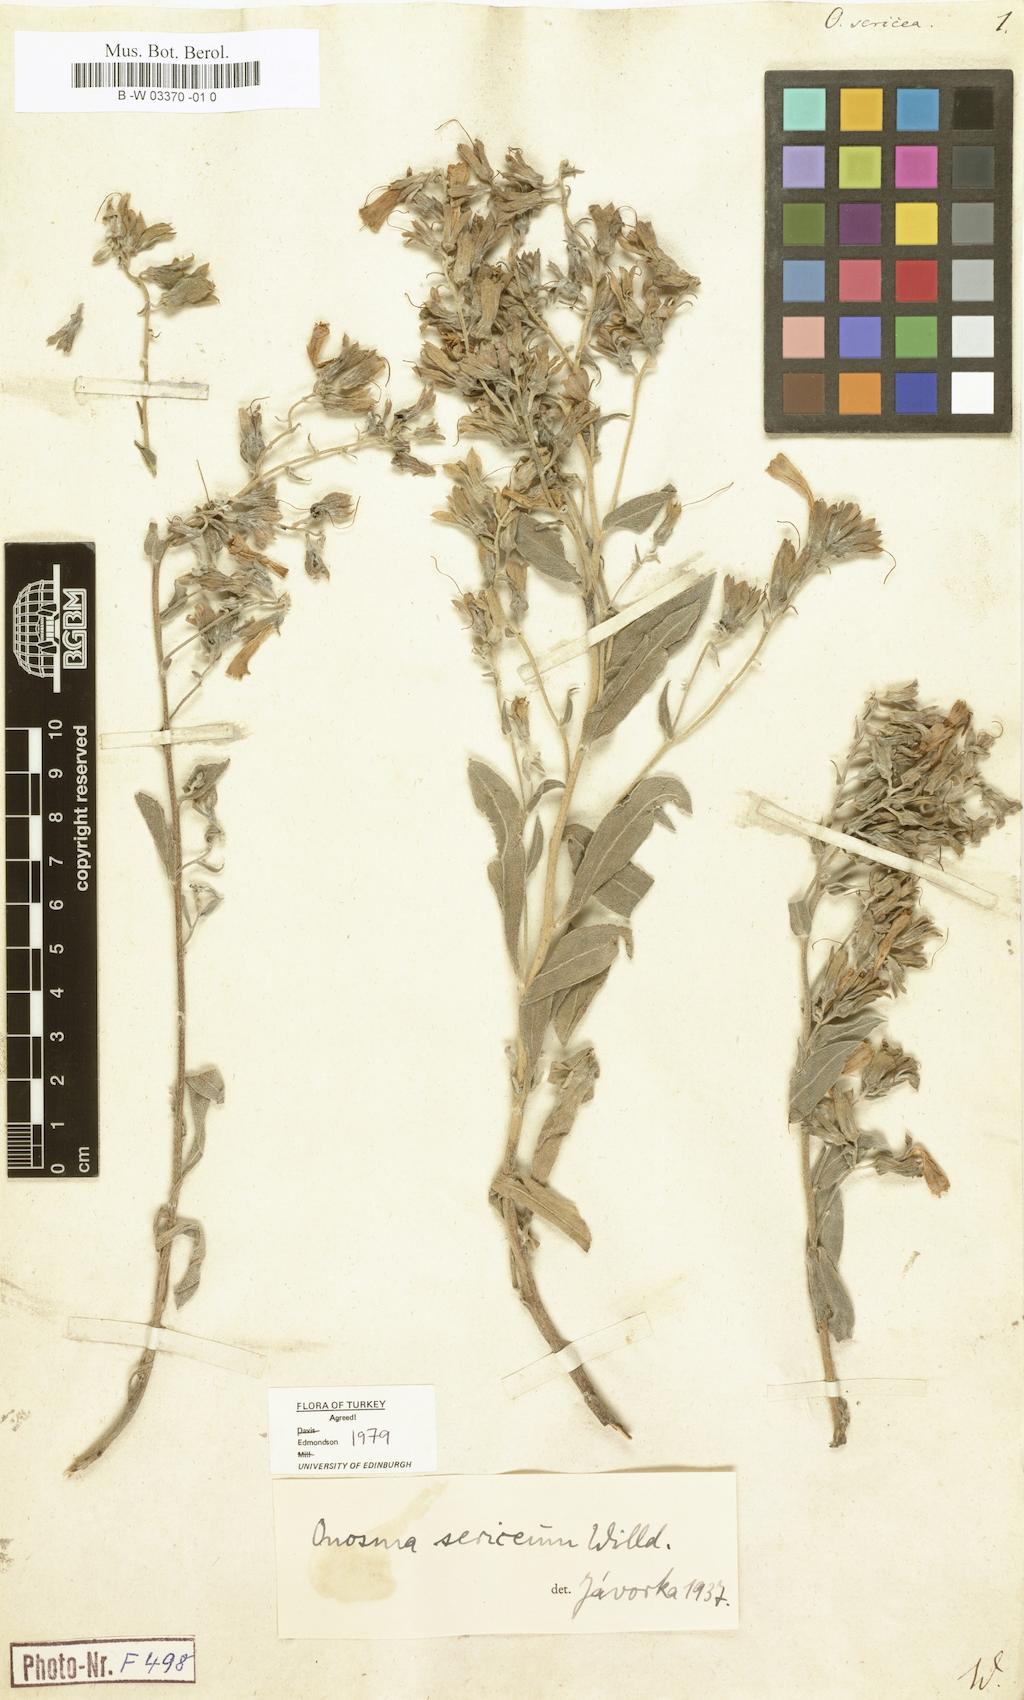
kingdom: Plantae
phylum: Tracheophyta
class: Magnoliopsida
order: Boraginales
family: Boraginaceae
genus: Onosma
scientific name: Onosma sericea
